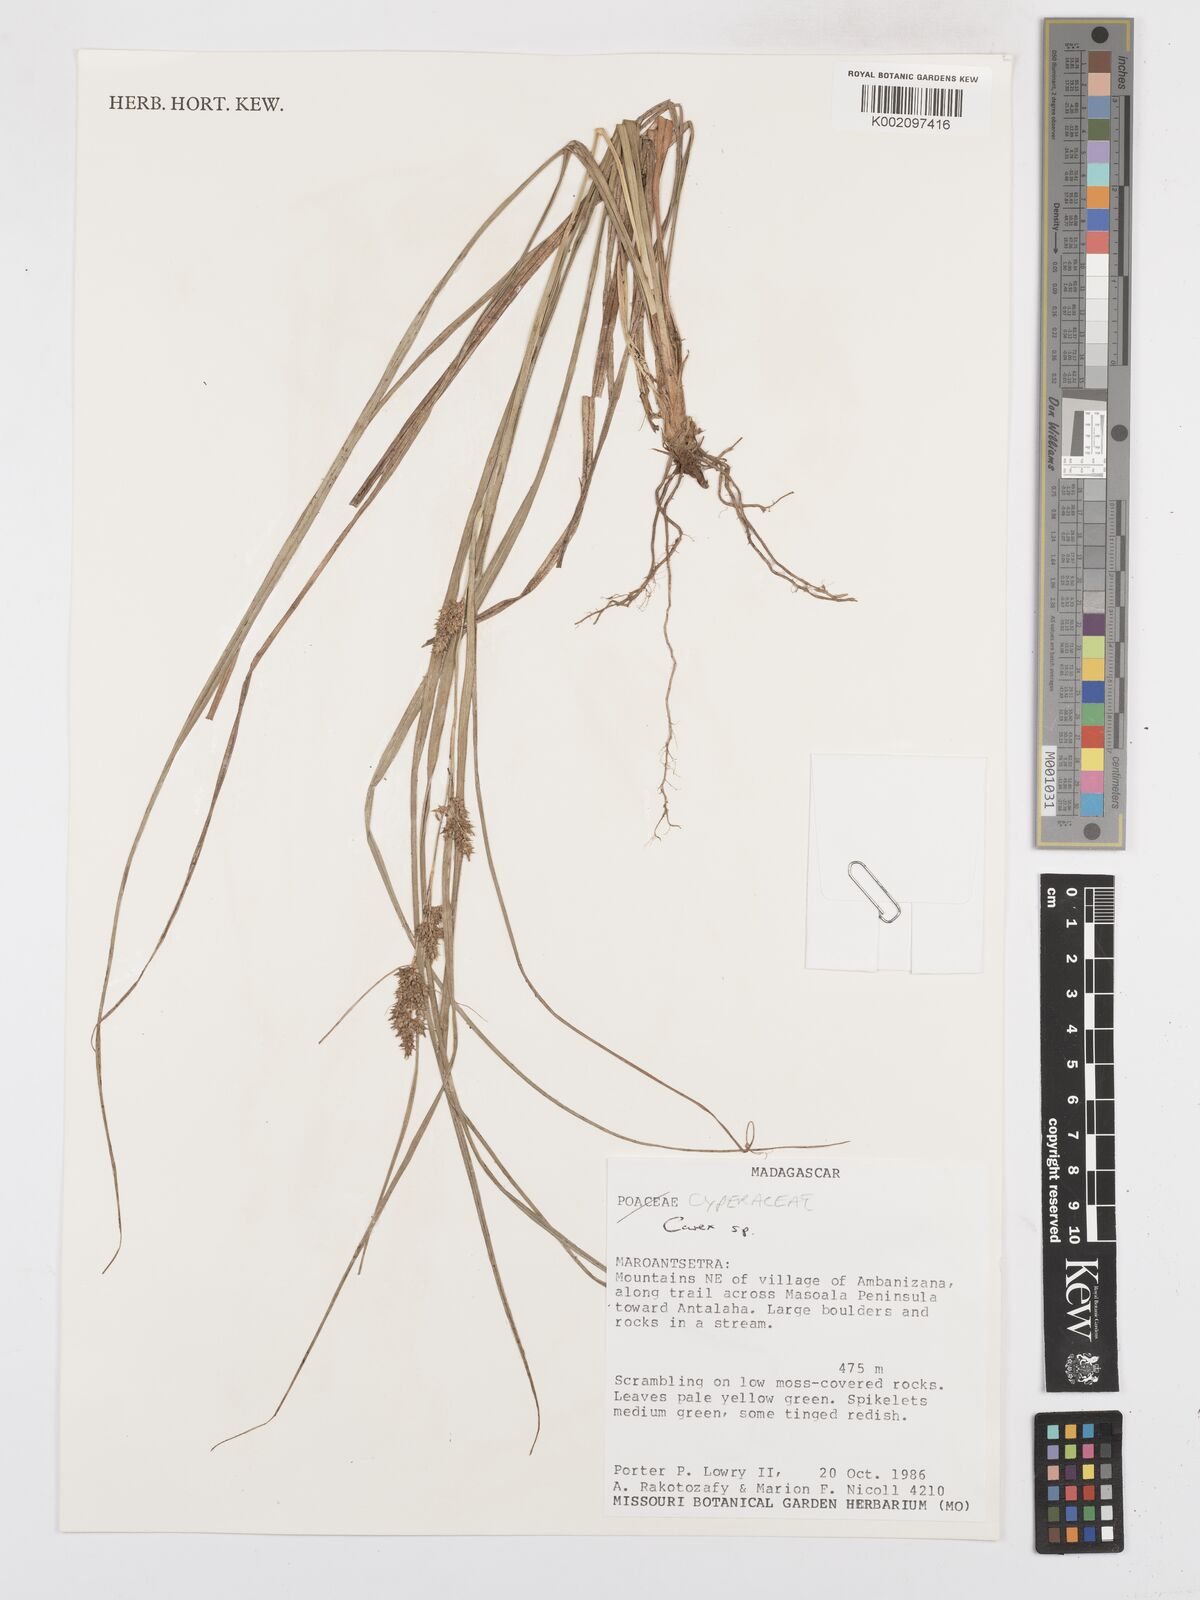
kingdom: Plantae
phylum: Tracheophyta
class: Liliopsida
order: Poales
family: Cyperaceae
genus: Carex
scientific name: Carex
